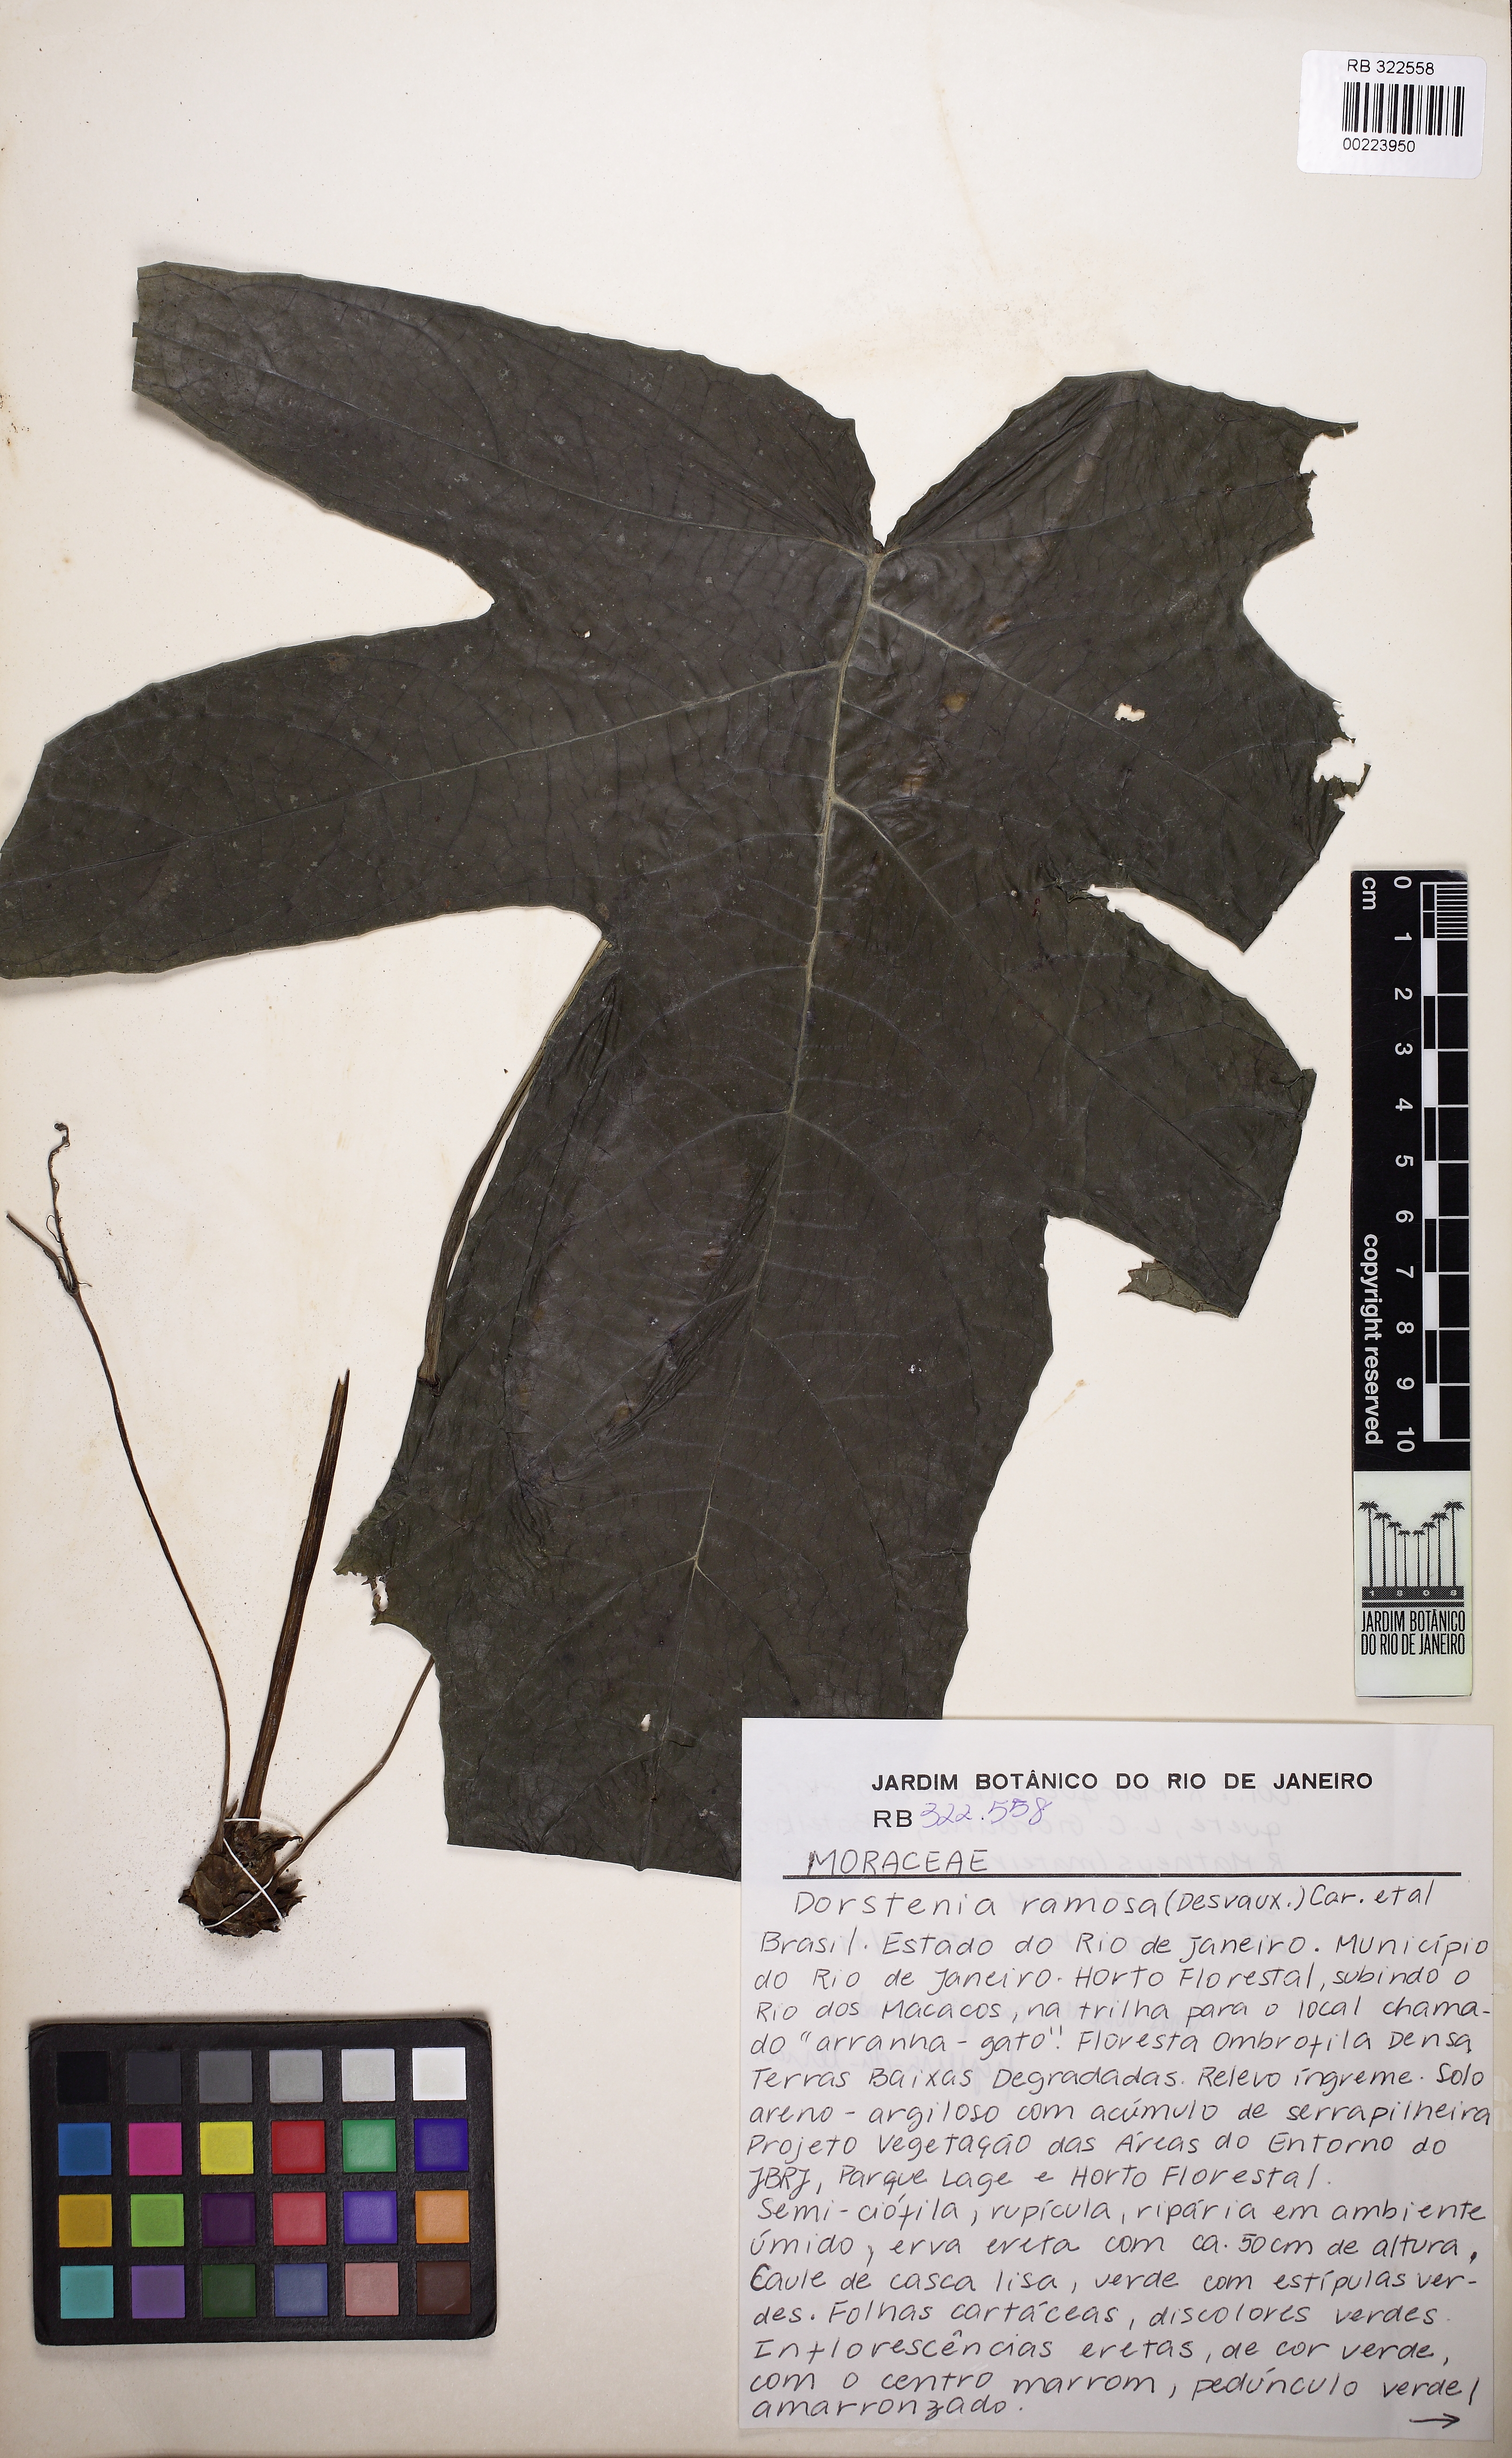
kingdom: Plantae
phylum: Tracheophyta
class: Magnoliopsida
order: Rosales
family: Moraceae
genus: Dorstenia
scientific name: Dorstenia ramosa
